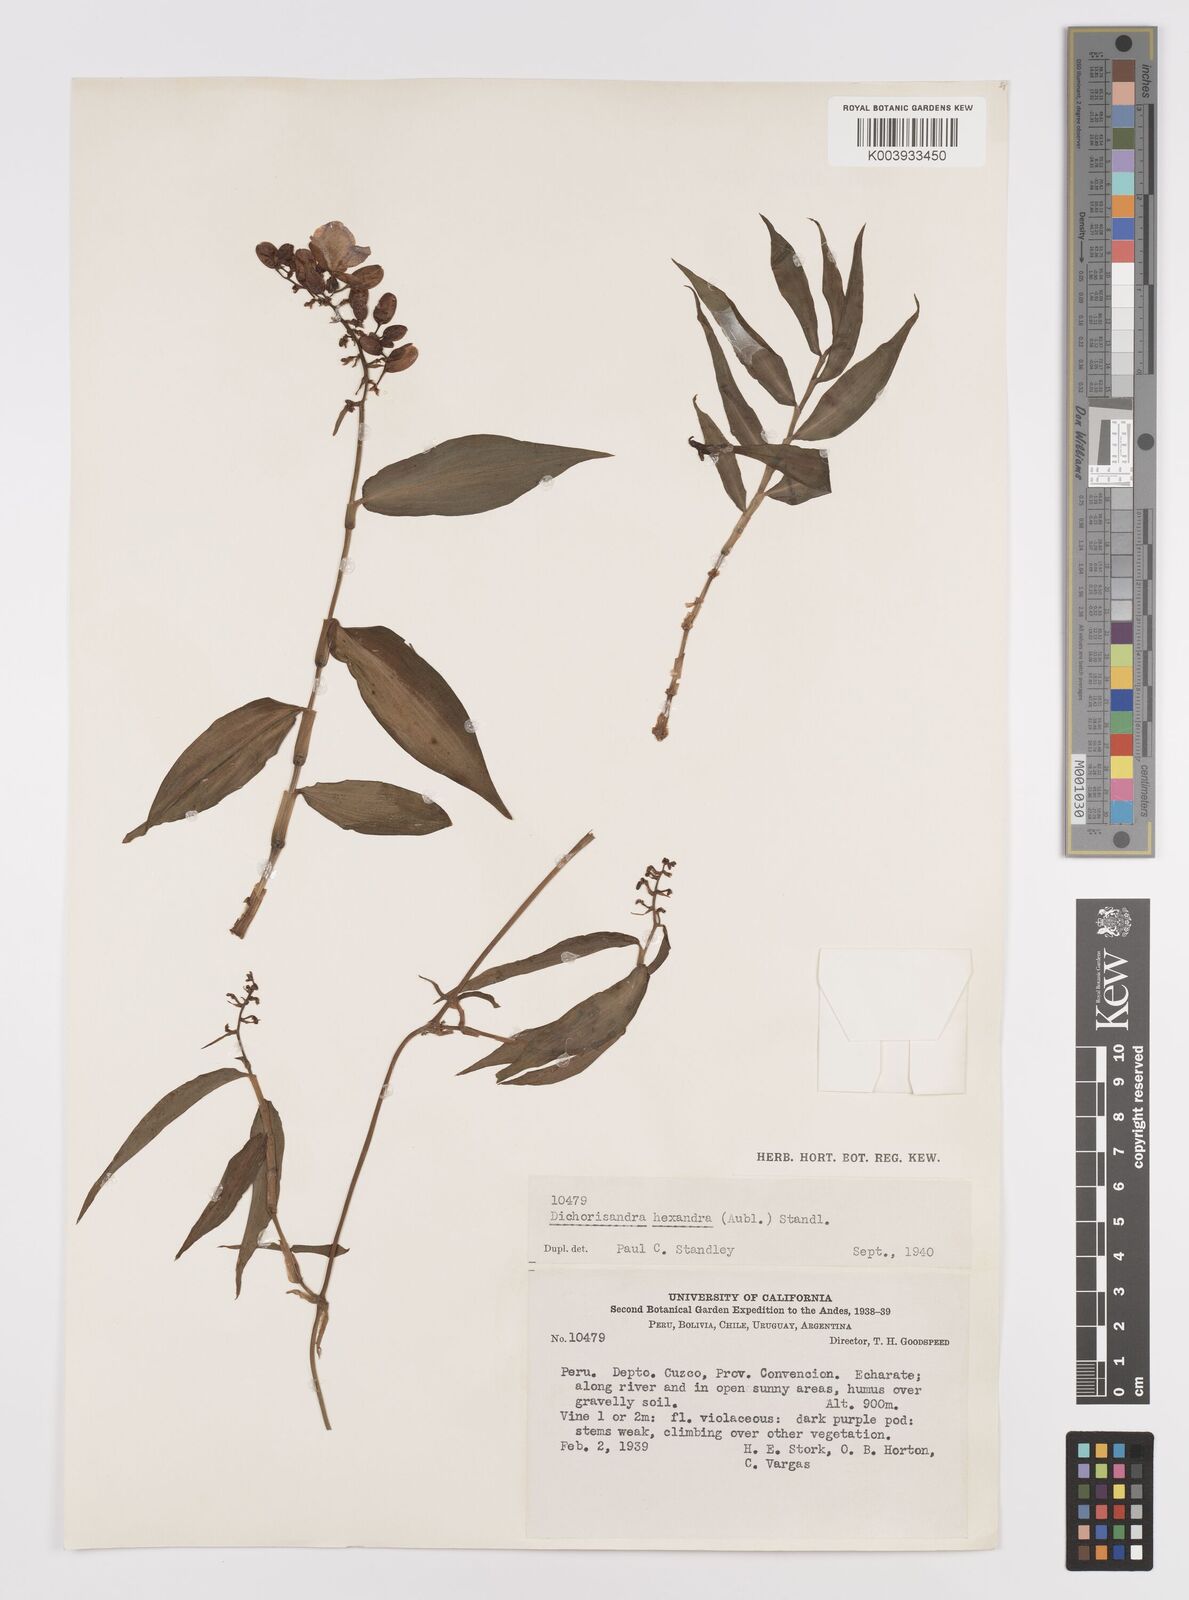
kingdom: Plantae
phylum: Tracheophyta
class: Liliopsida
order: Commelinales
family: Commelinaceae
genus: Dichorisandra
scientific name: Dichorisandra hexandra
